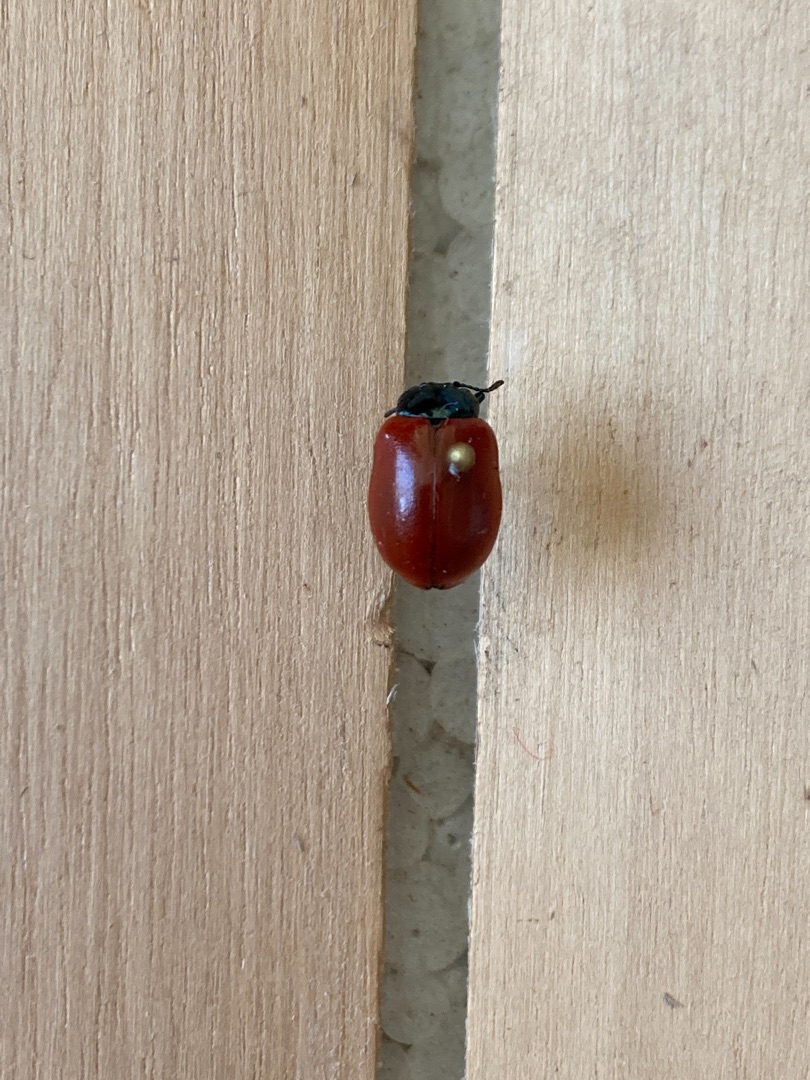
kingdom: Animalia
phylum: Arthropoda
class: Insecta
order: Coleoptera
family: Chrysomelidae
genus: Chrysomela
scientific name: Chrysomela populi
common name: Poppelbladbille
